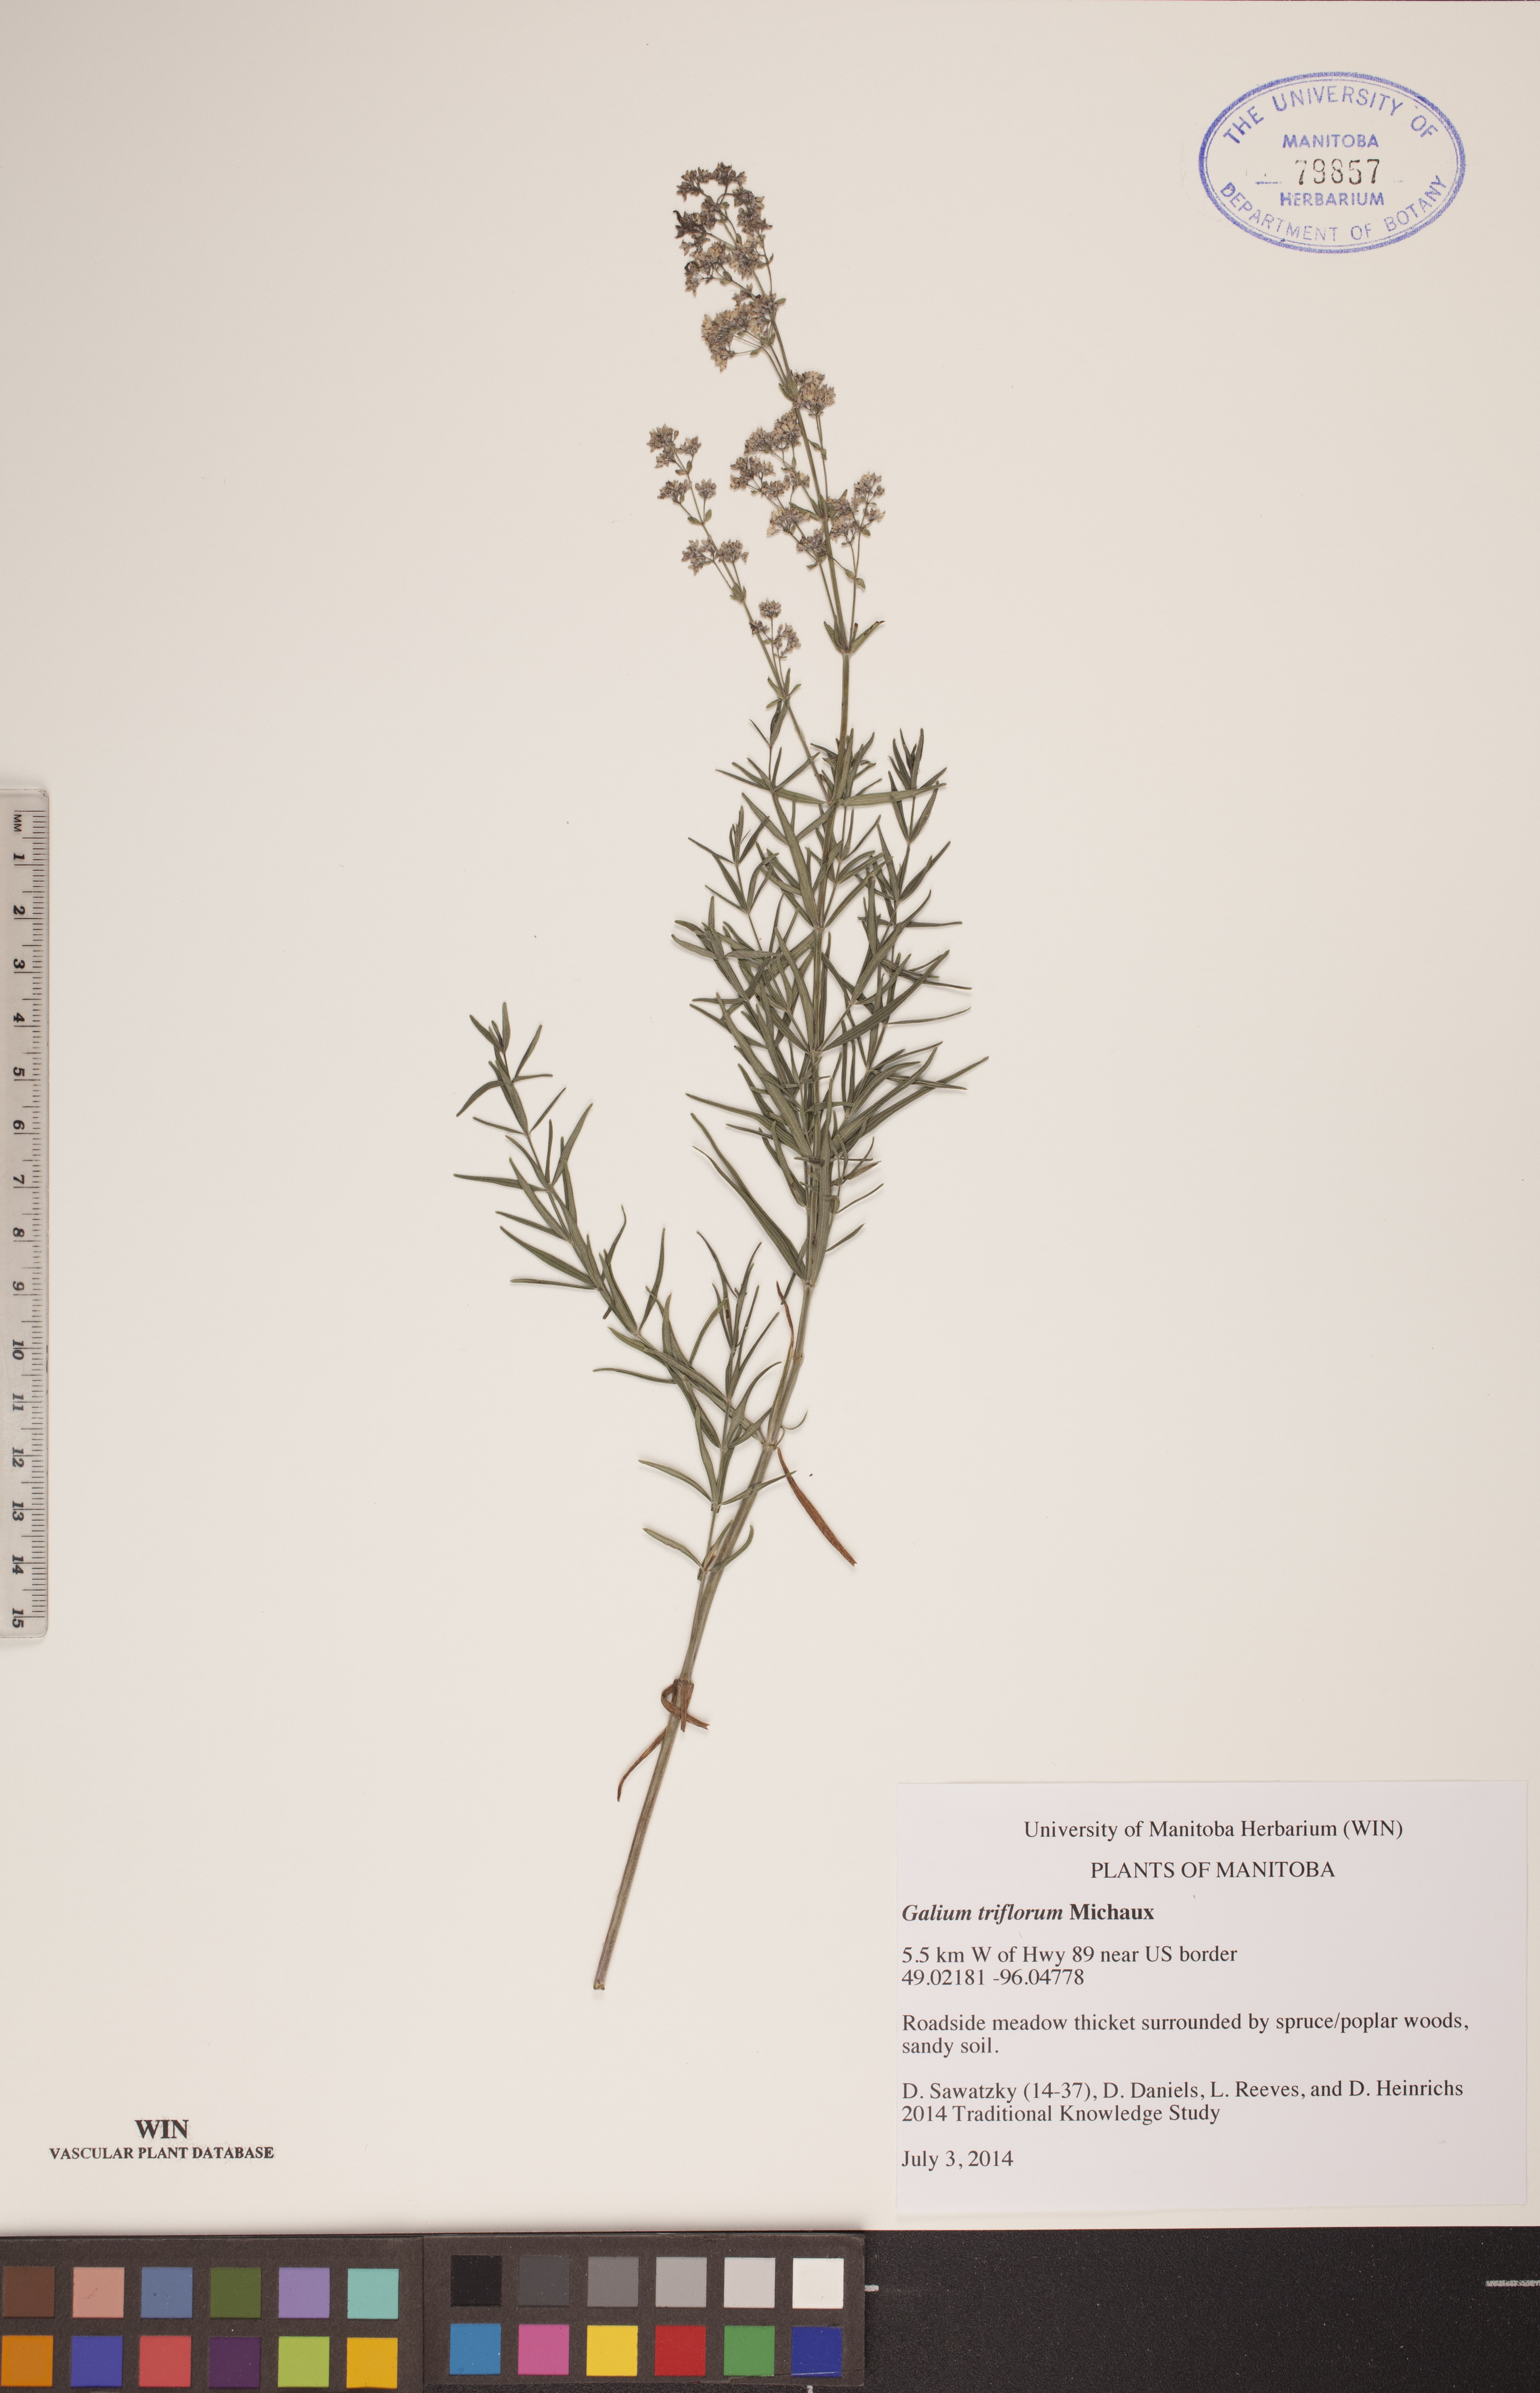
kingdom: Plantae
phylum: Tracheophyta
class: Magnoliopsida
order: Gentianales
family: Rubiaceae
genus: Galium
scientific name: Galium triflorum
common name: Fragrant bedstraw
